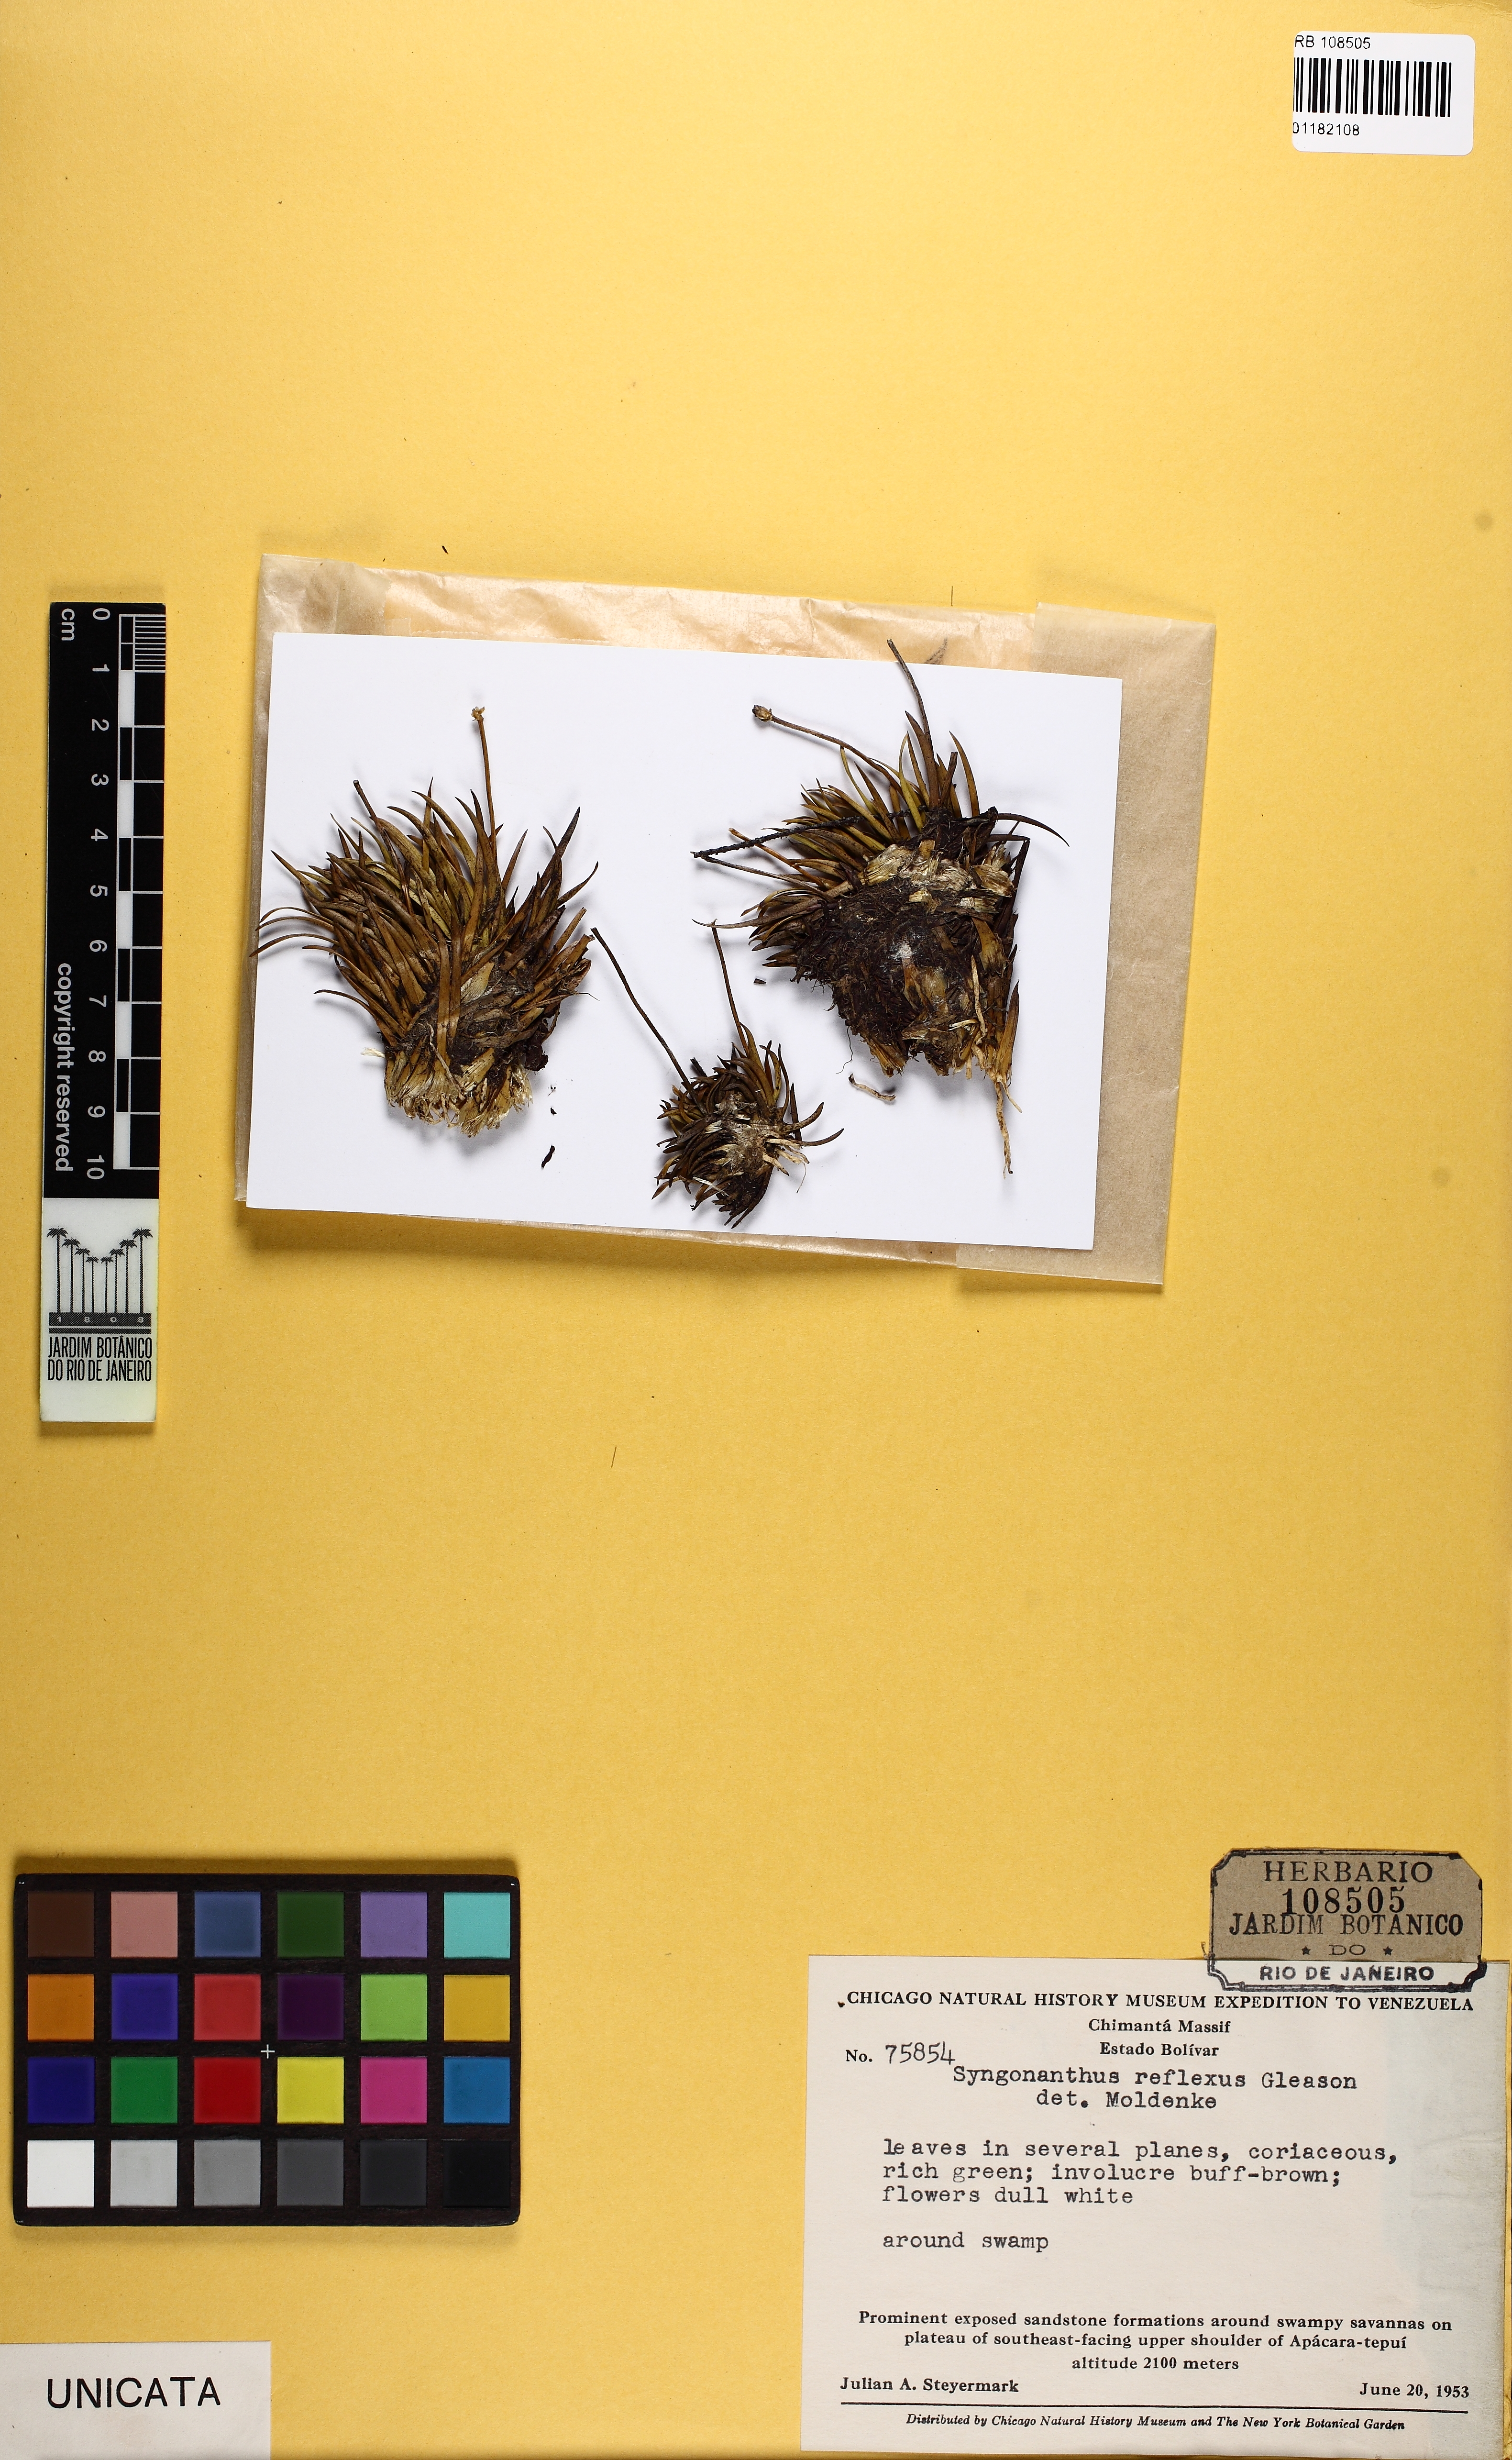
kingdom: Plantae
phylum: Tracheophyta
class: Liliopsida
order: Poales
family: Eriocaulaceae
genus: Comanthera
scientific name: Comanthera tricostata
